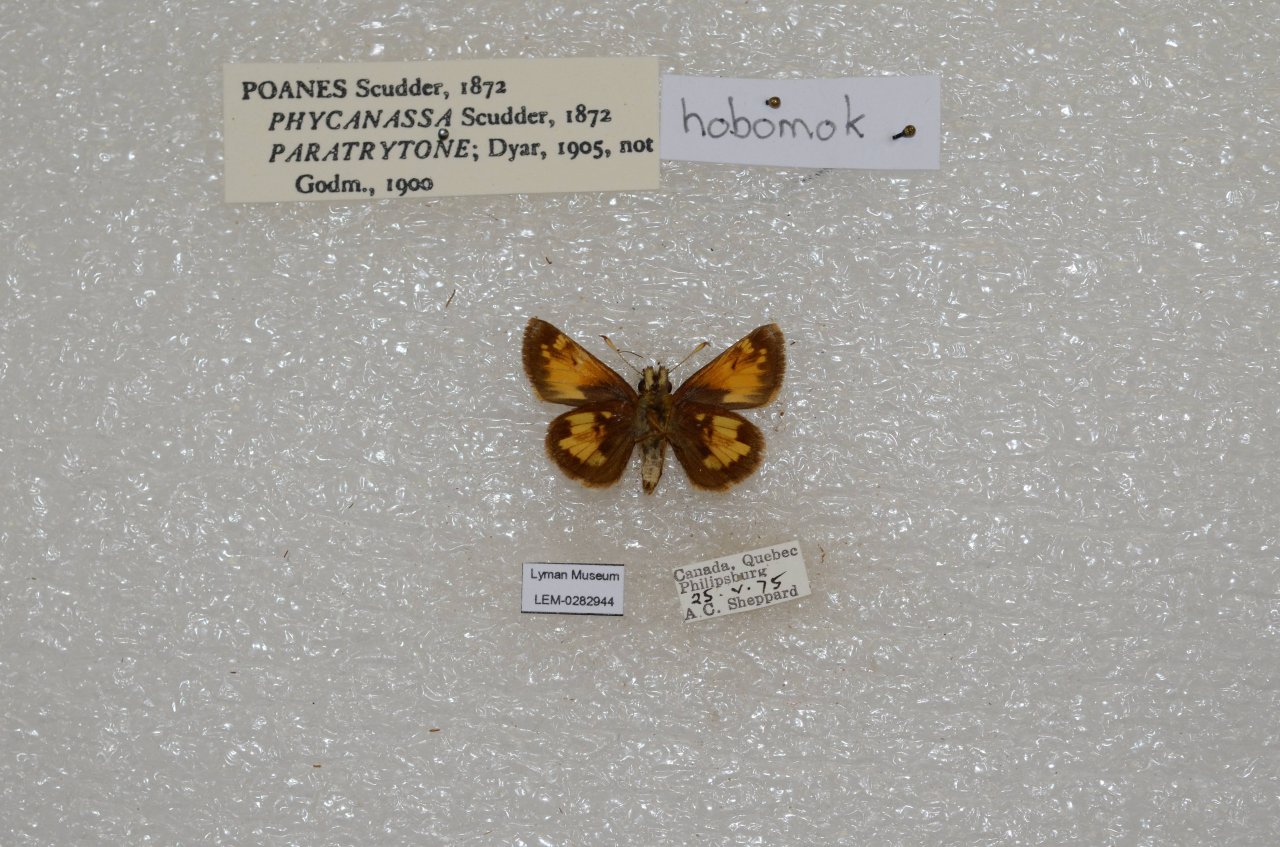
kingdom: Animalia
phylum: Arthropoda
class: Insecta
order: Lepidoptera
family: Hesperiidae
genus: Lon
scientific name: Lon hobomok
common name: Hobomok Skipper
